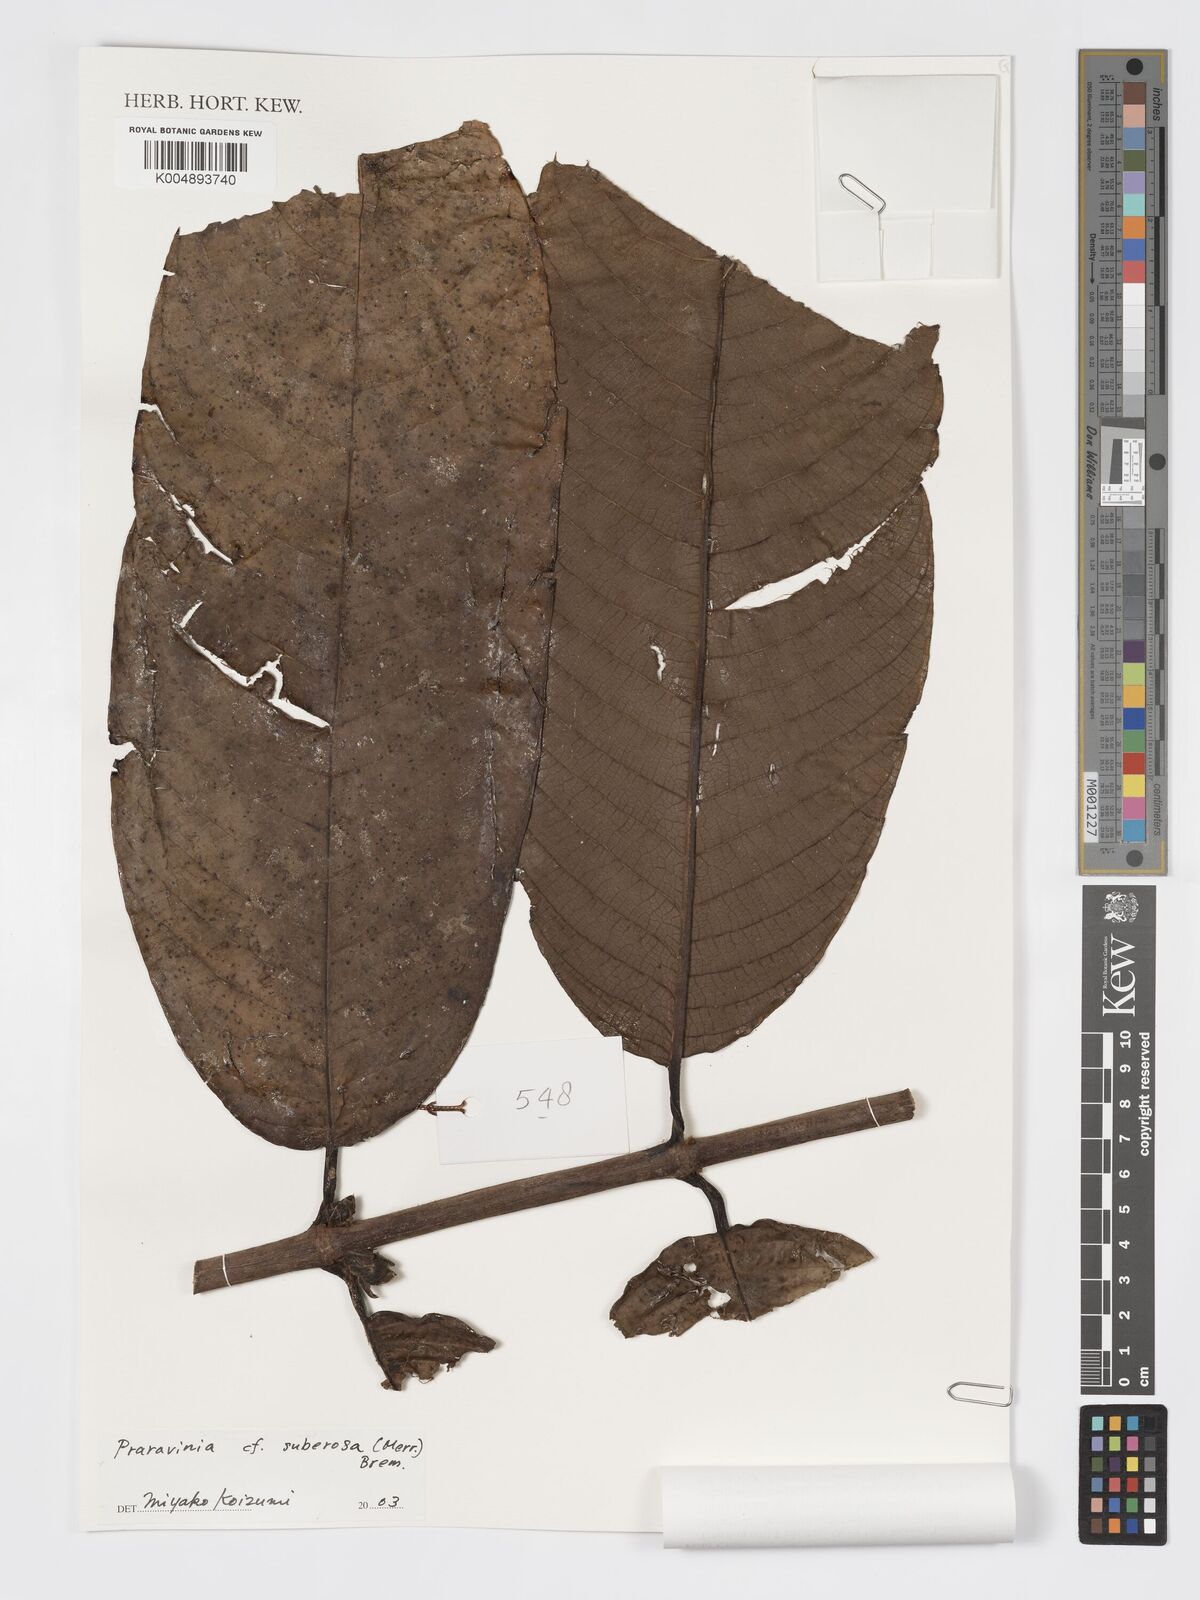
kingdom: Plantae
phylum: Tracheophyta
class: Magnoliopsida
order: Gentianales
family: Rubiaceae
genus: Praravinia
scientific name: Praravinia suberosa
